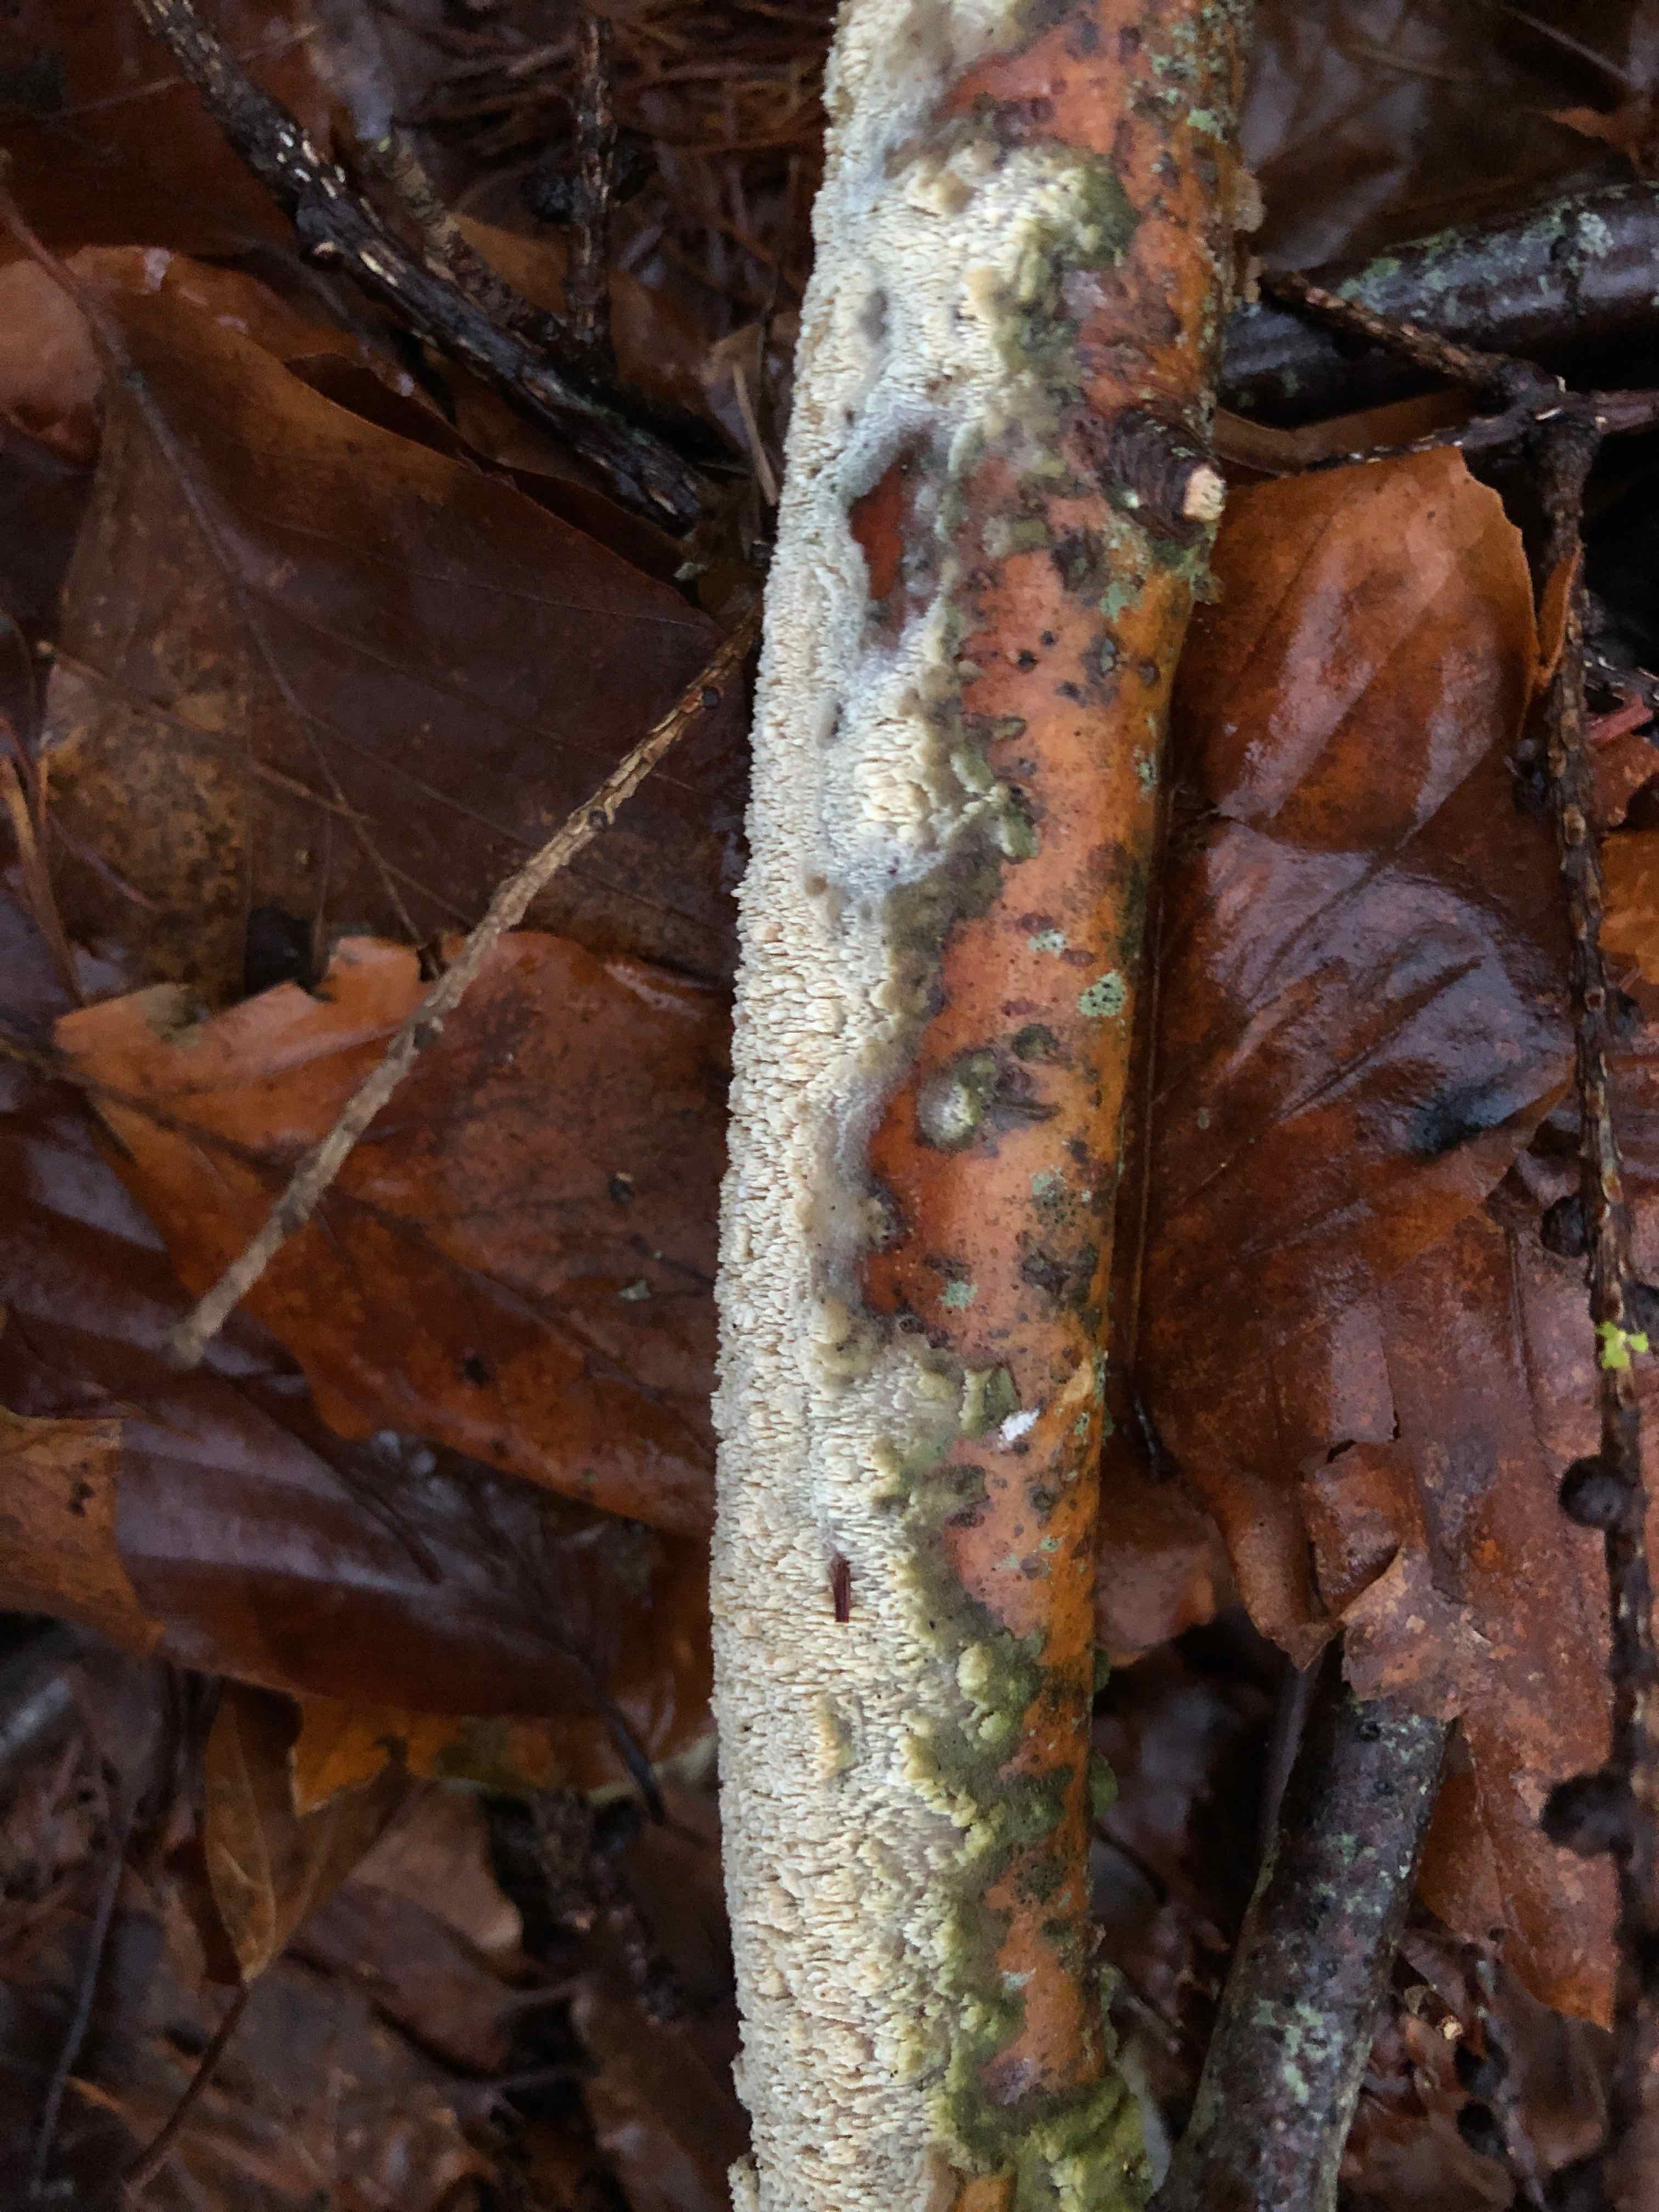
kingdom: Fungi
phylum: Basidiomycota
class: Agaricomycetes
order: Hymenochaetales
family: Schizoporaceae
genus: Schizopora
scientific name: Schizopora paradoxa
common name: hvid tandsvamp
